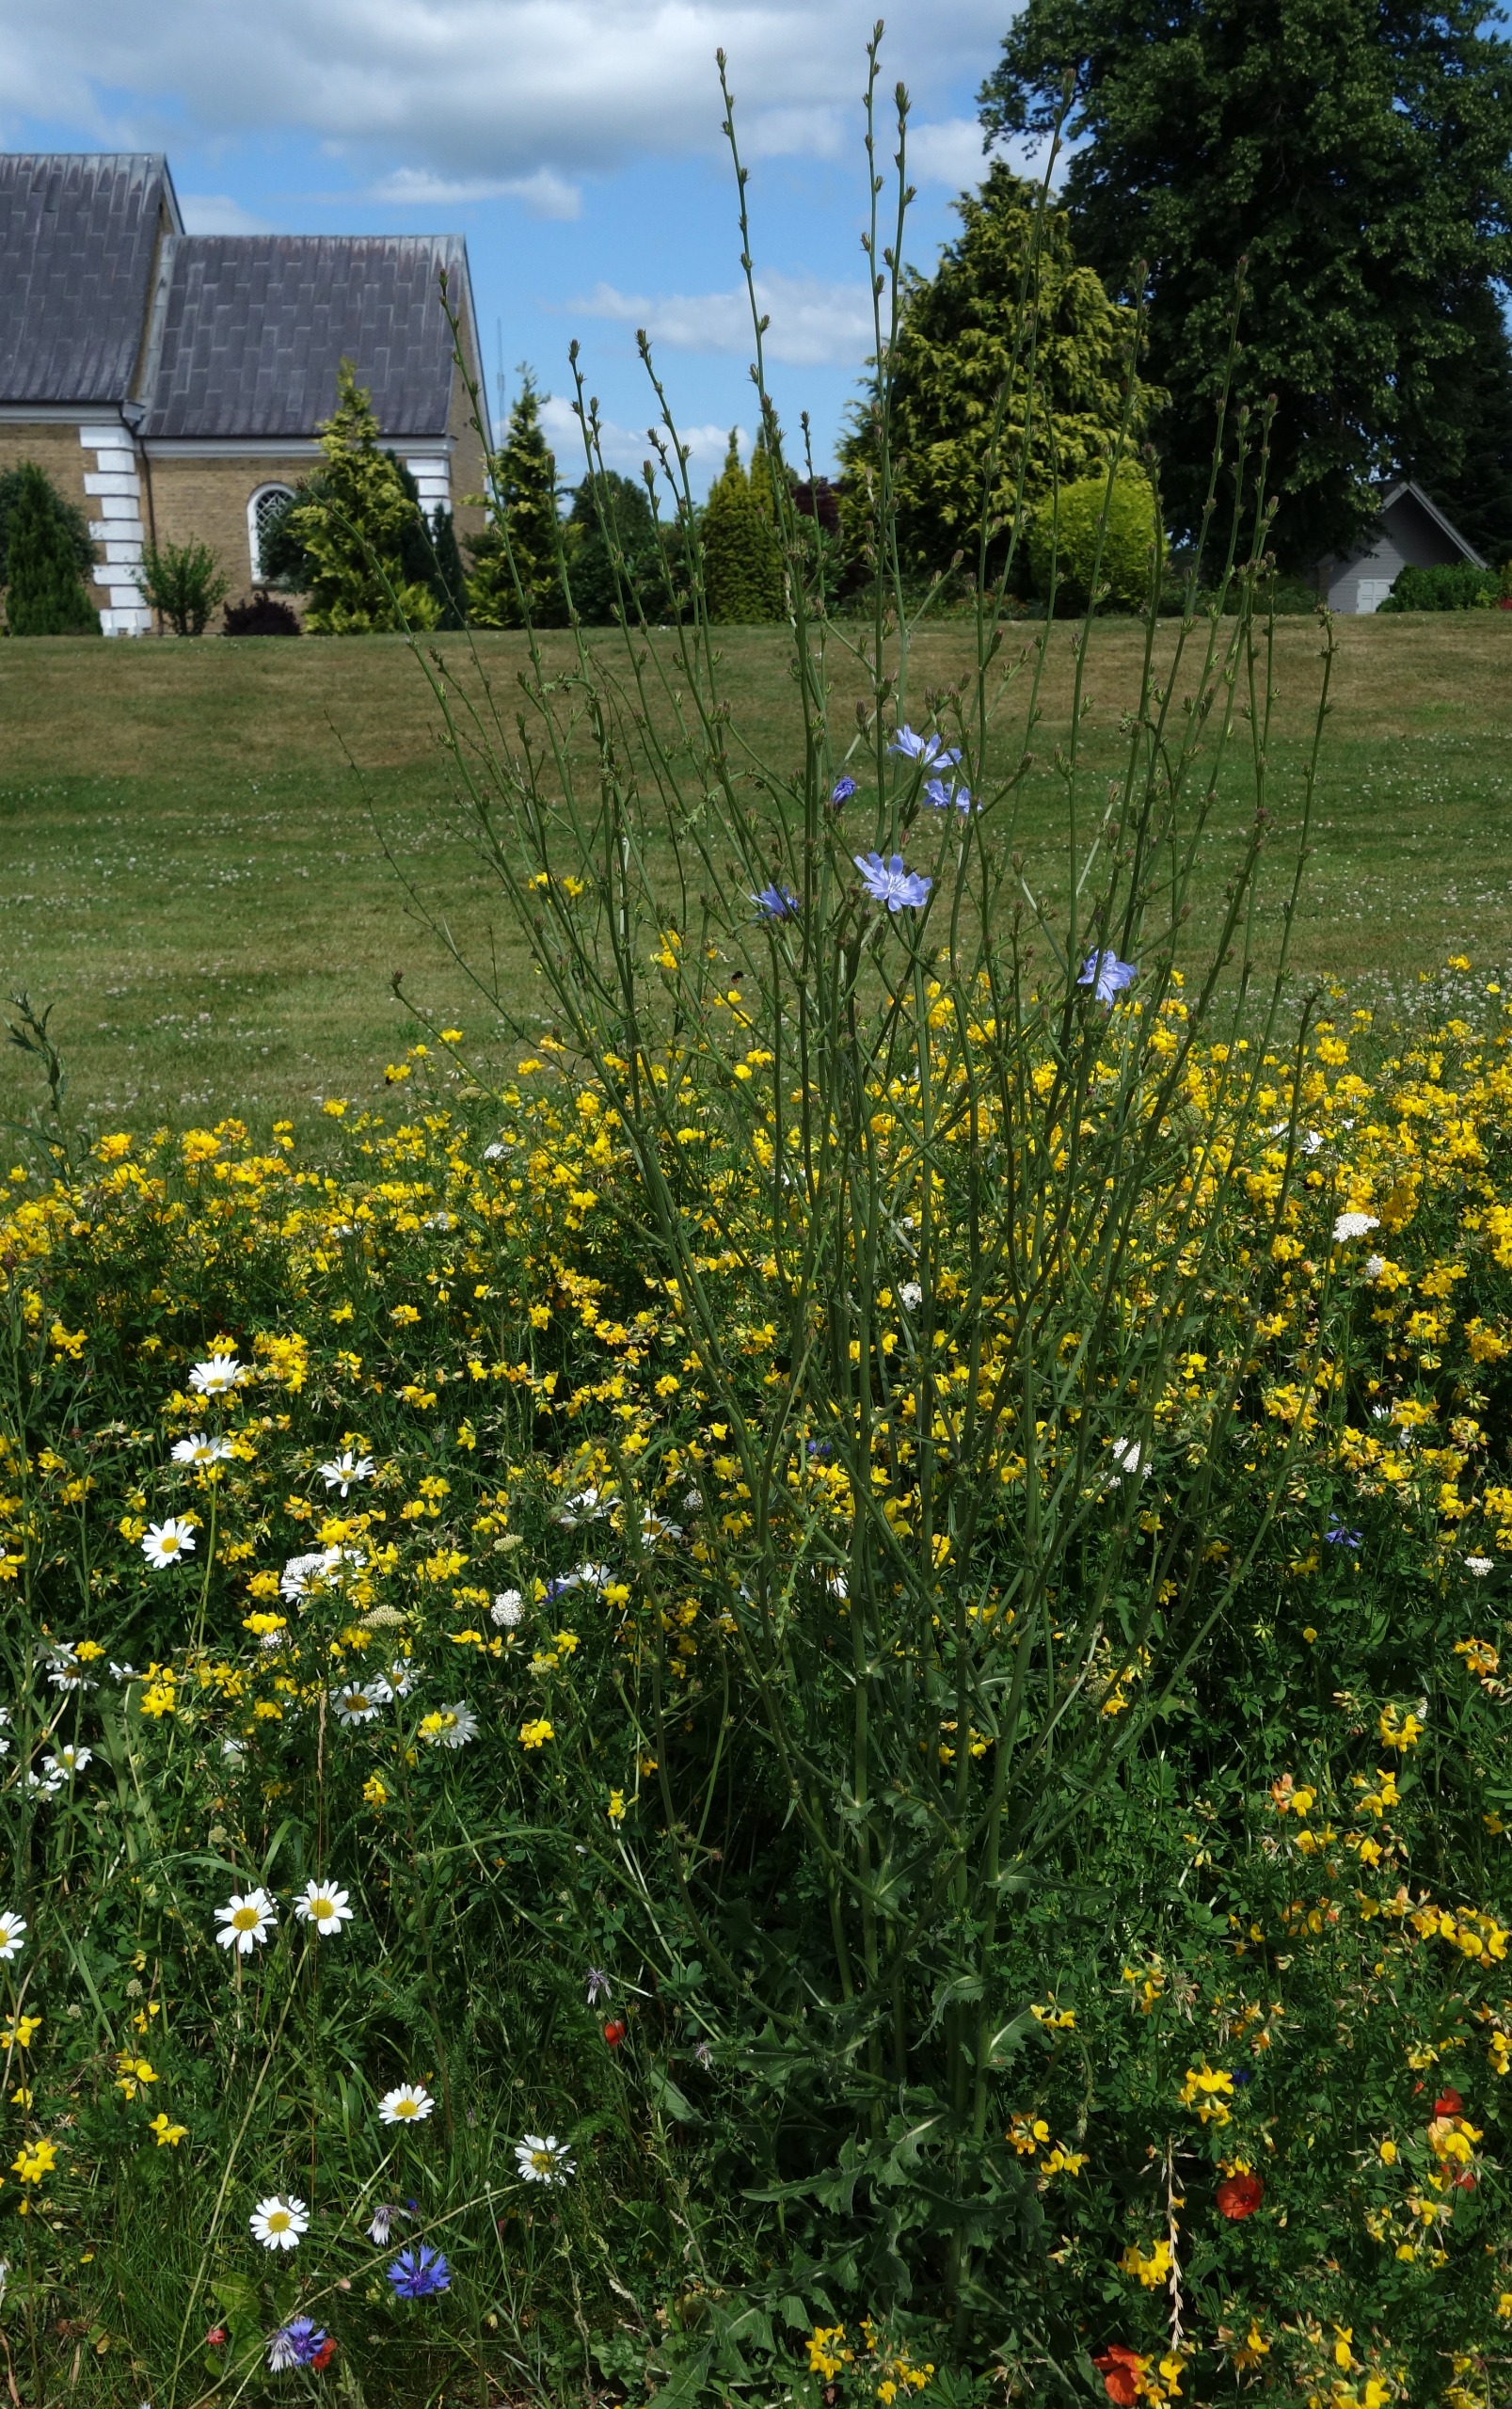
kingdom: Plantae
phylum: Tracheophyta
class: Magnoliopsida
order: Asterales
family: Asteraceae
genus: Cichorium
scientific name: Cichorium intybus
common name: Cikorie
